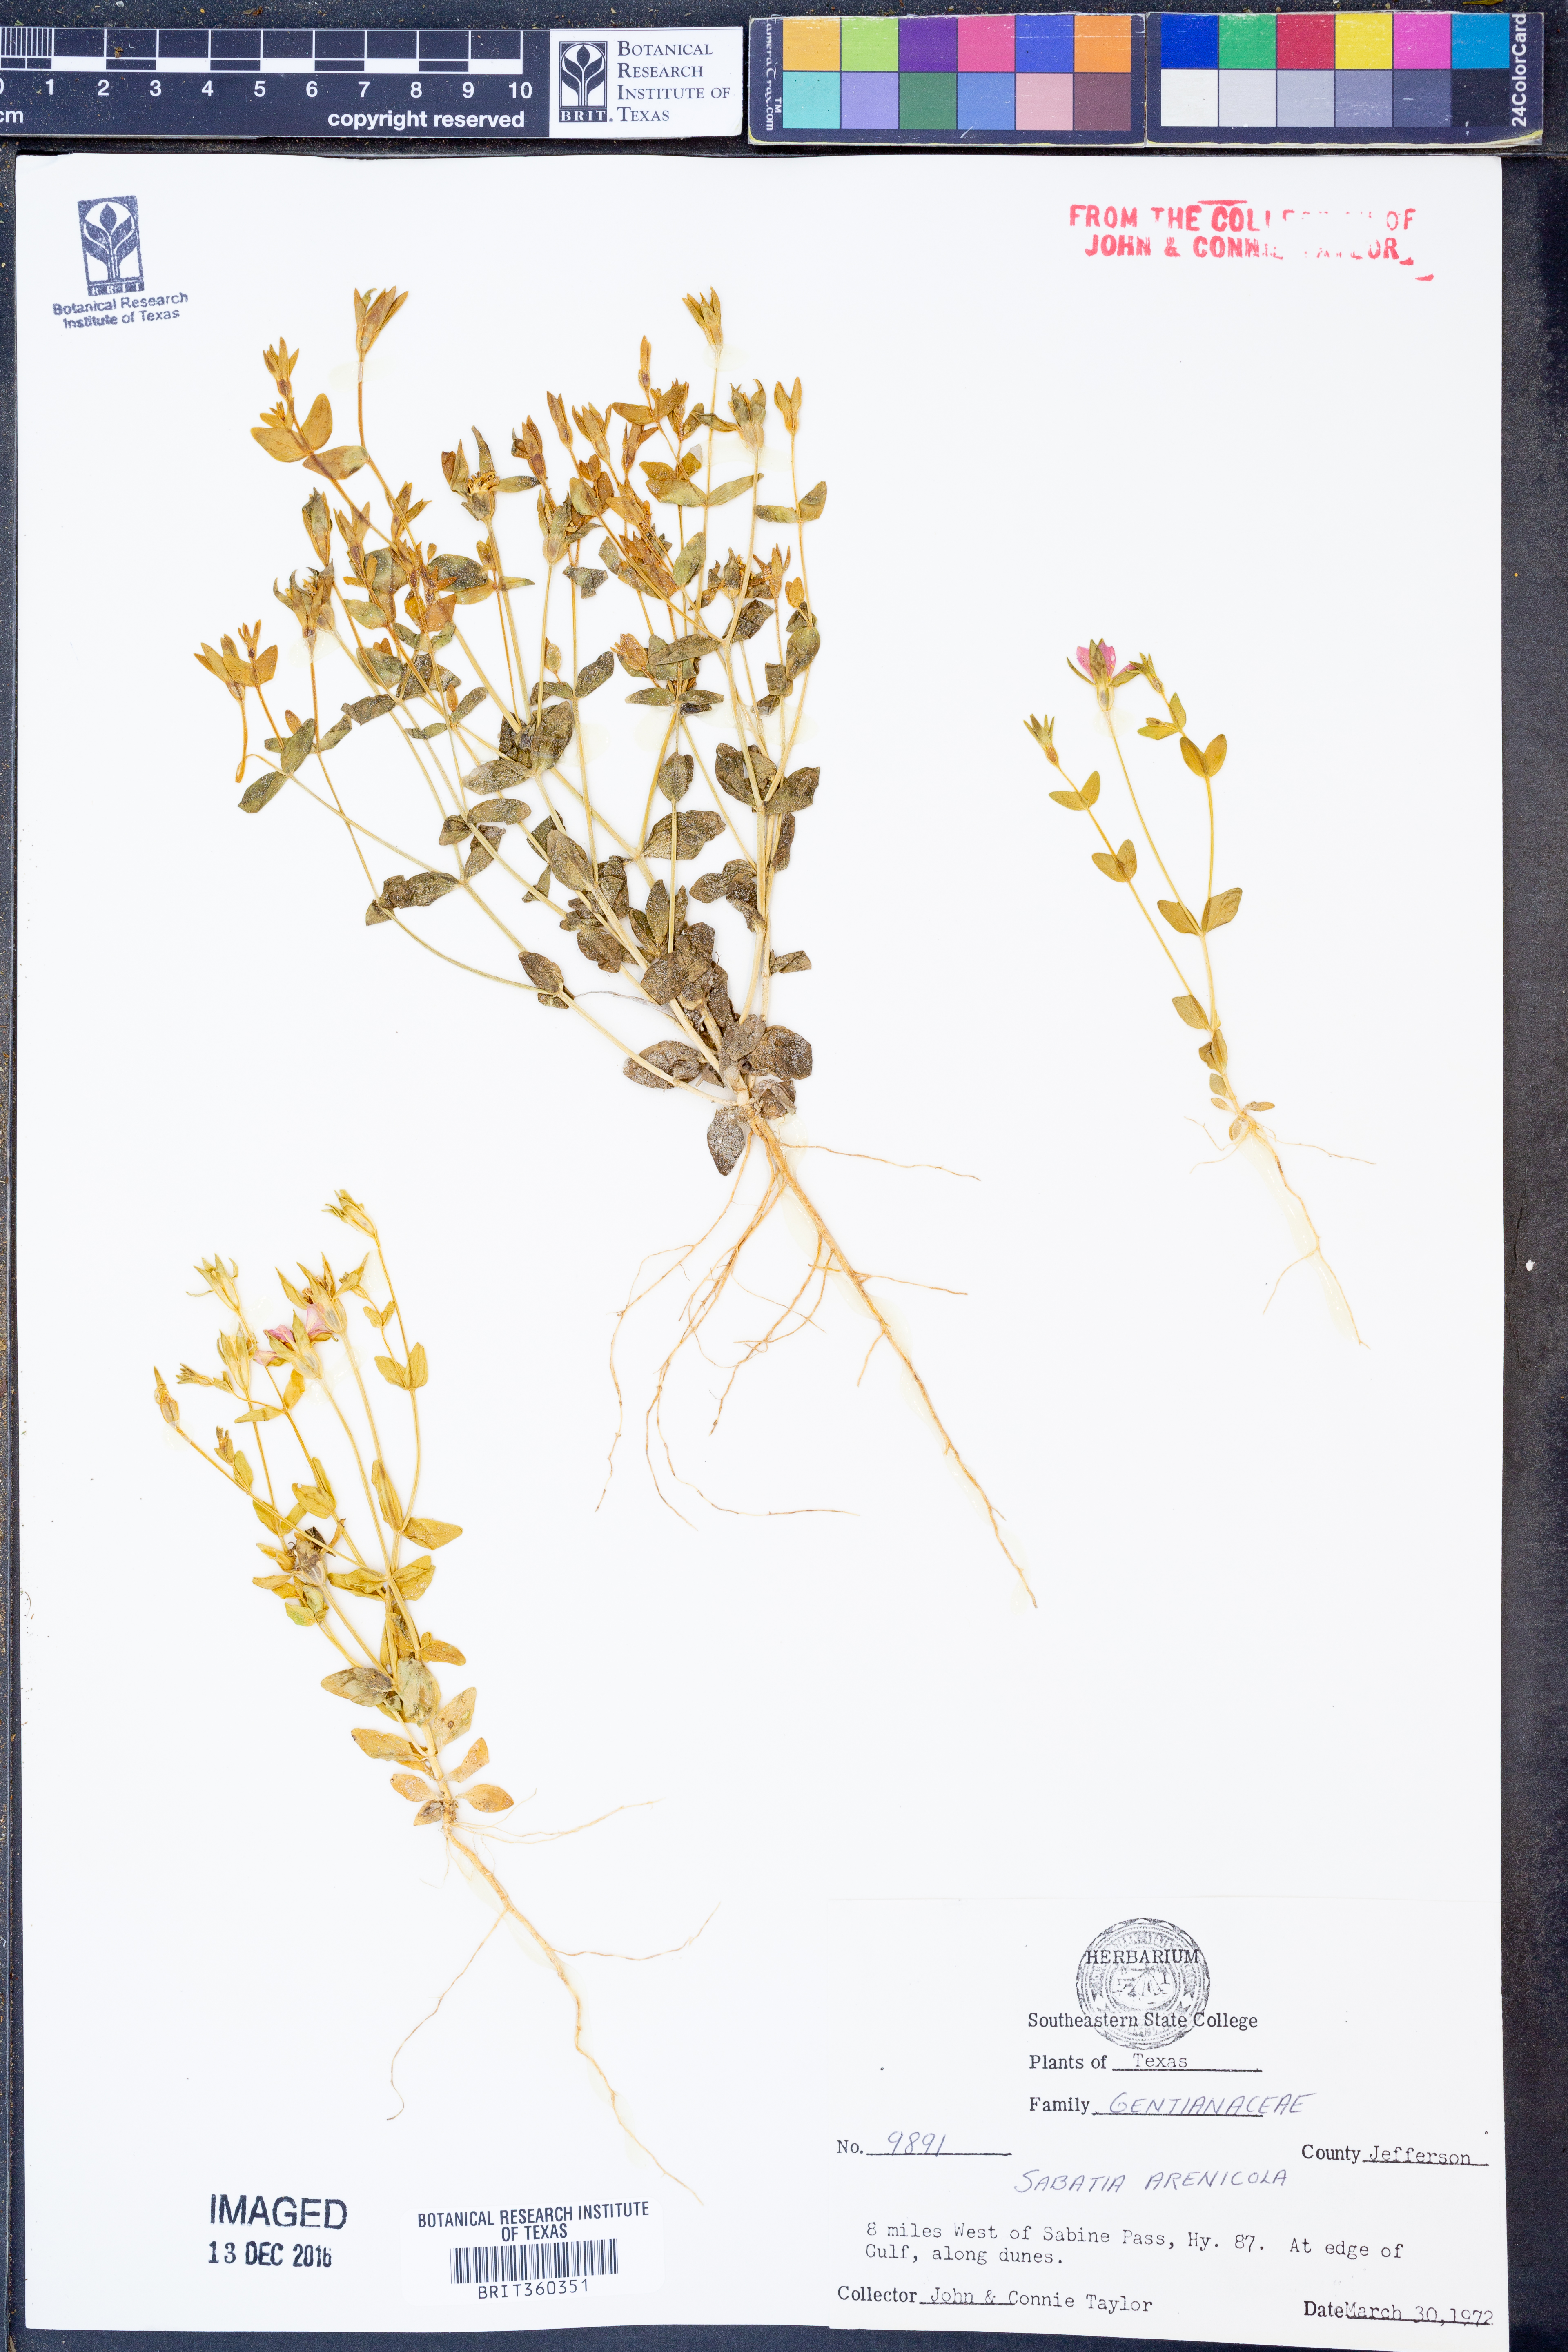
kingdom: Plantae
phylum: Tracheophyta
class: Magnoliopsida
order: Gentianales
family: Gentianaceae
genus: Sabatia
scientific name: Sabatia arenicola
